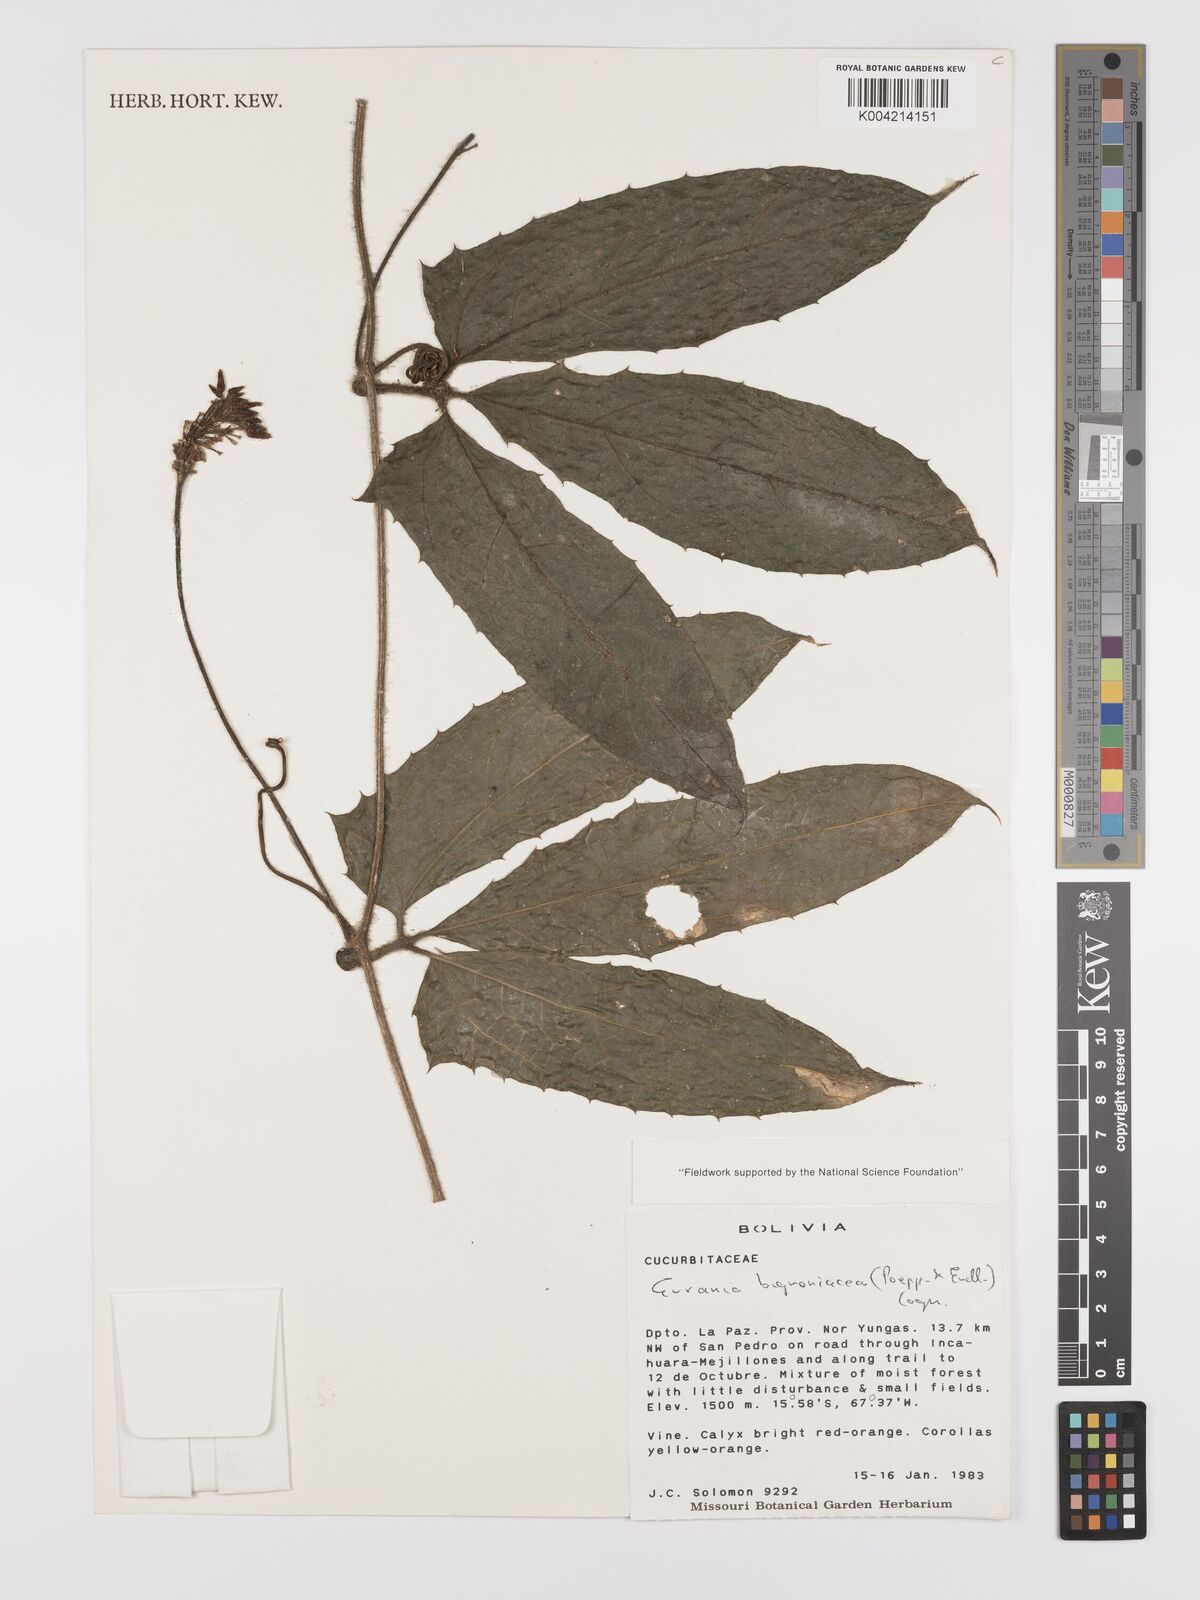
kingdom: Plantae
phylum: Tracheophyta
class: Magnoliopsida
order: Cucurbitales
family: Cucurbitaceae
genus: Gurania
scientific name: Gurania bignoniacea
